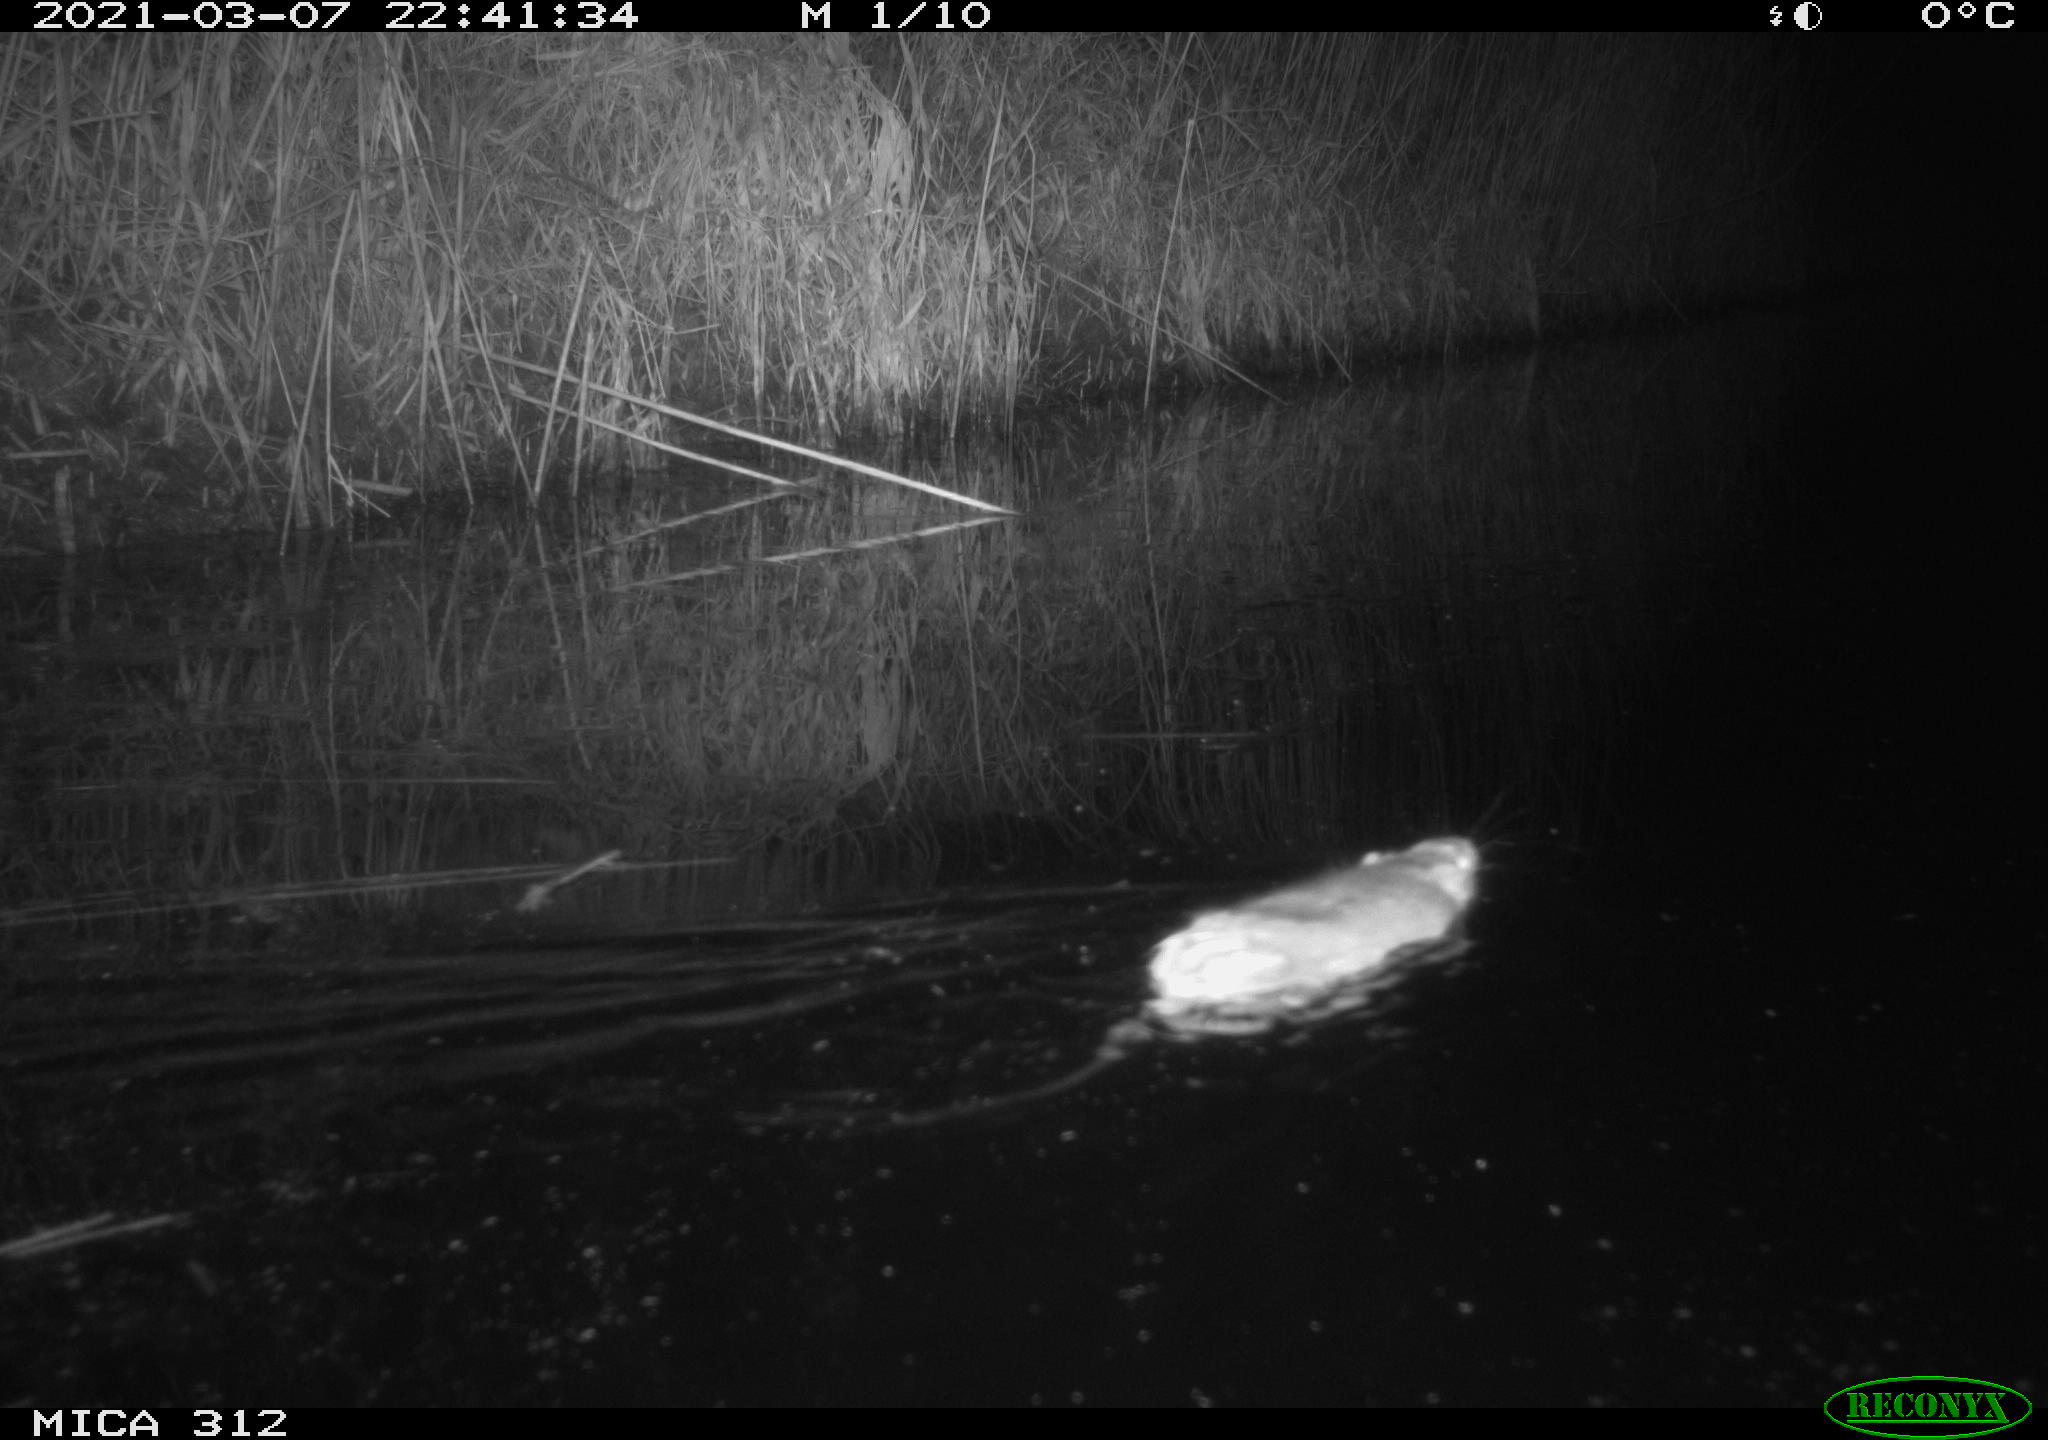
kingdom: Animalia
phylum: Chordata
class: Mammalia
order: Rodentia
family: Muridae
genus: Rattus
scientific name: Rattus norvegicus
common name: Brown rat
